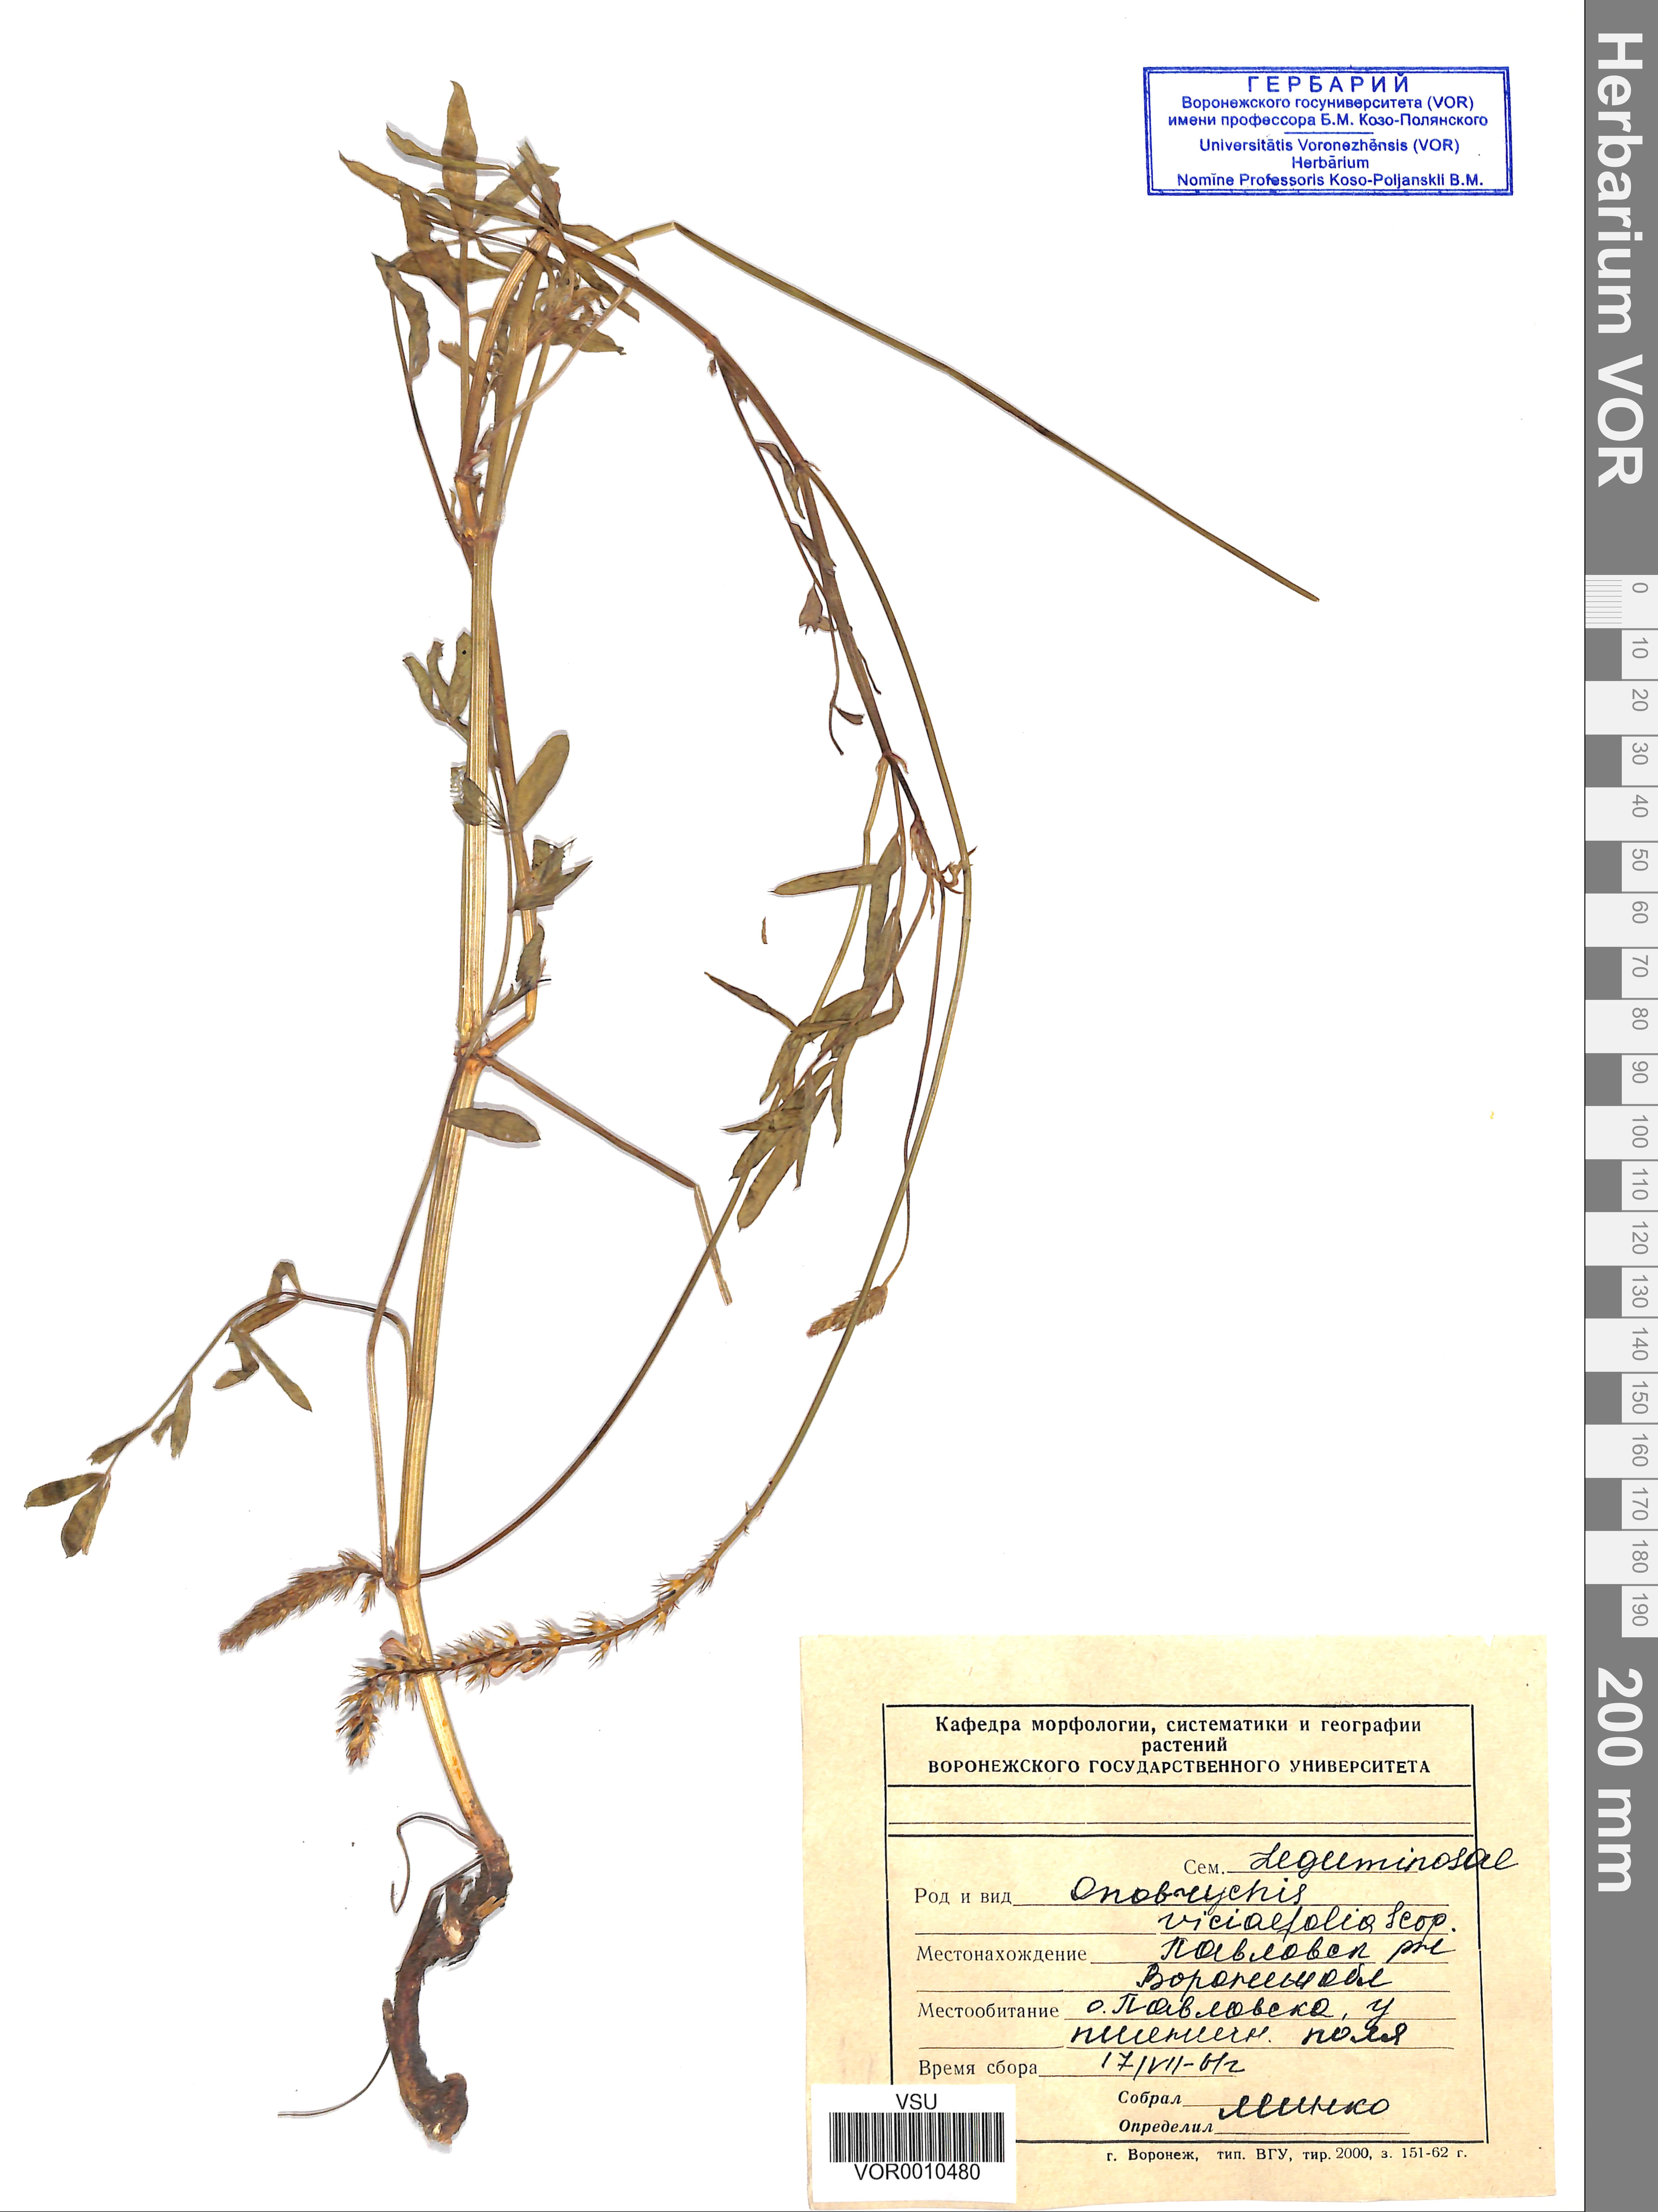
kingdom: Plantae
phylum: Tracheophyta
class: Magnoliopsida
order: Fabales
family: Fabaceae
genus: Onobrychis
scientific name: Onobrychis viciifolia
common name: Sainfoin
